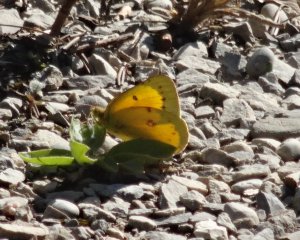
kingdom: Animalia
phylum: Arthropoda
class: Insecta
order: Lepidoptera
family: Pieridae
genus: Colias
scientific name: Colias eurytheme
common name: Orange Sulphur
